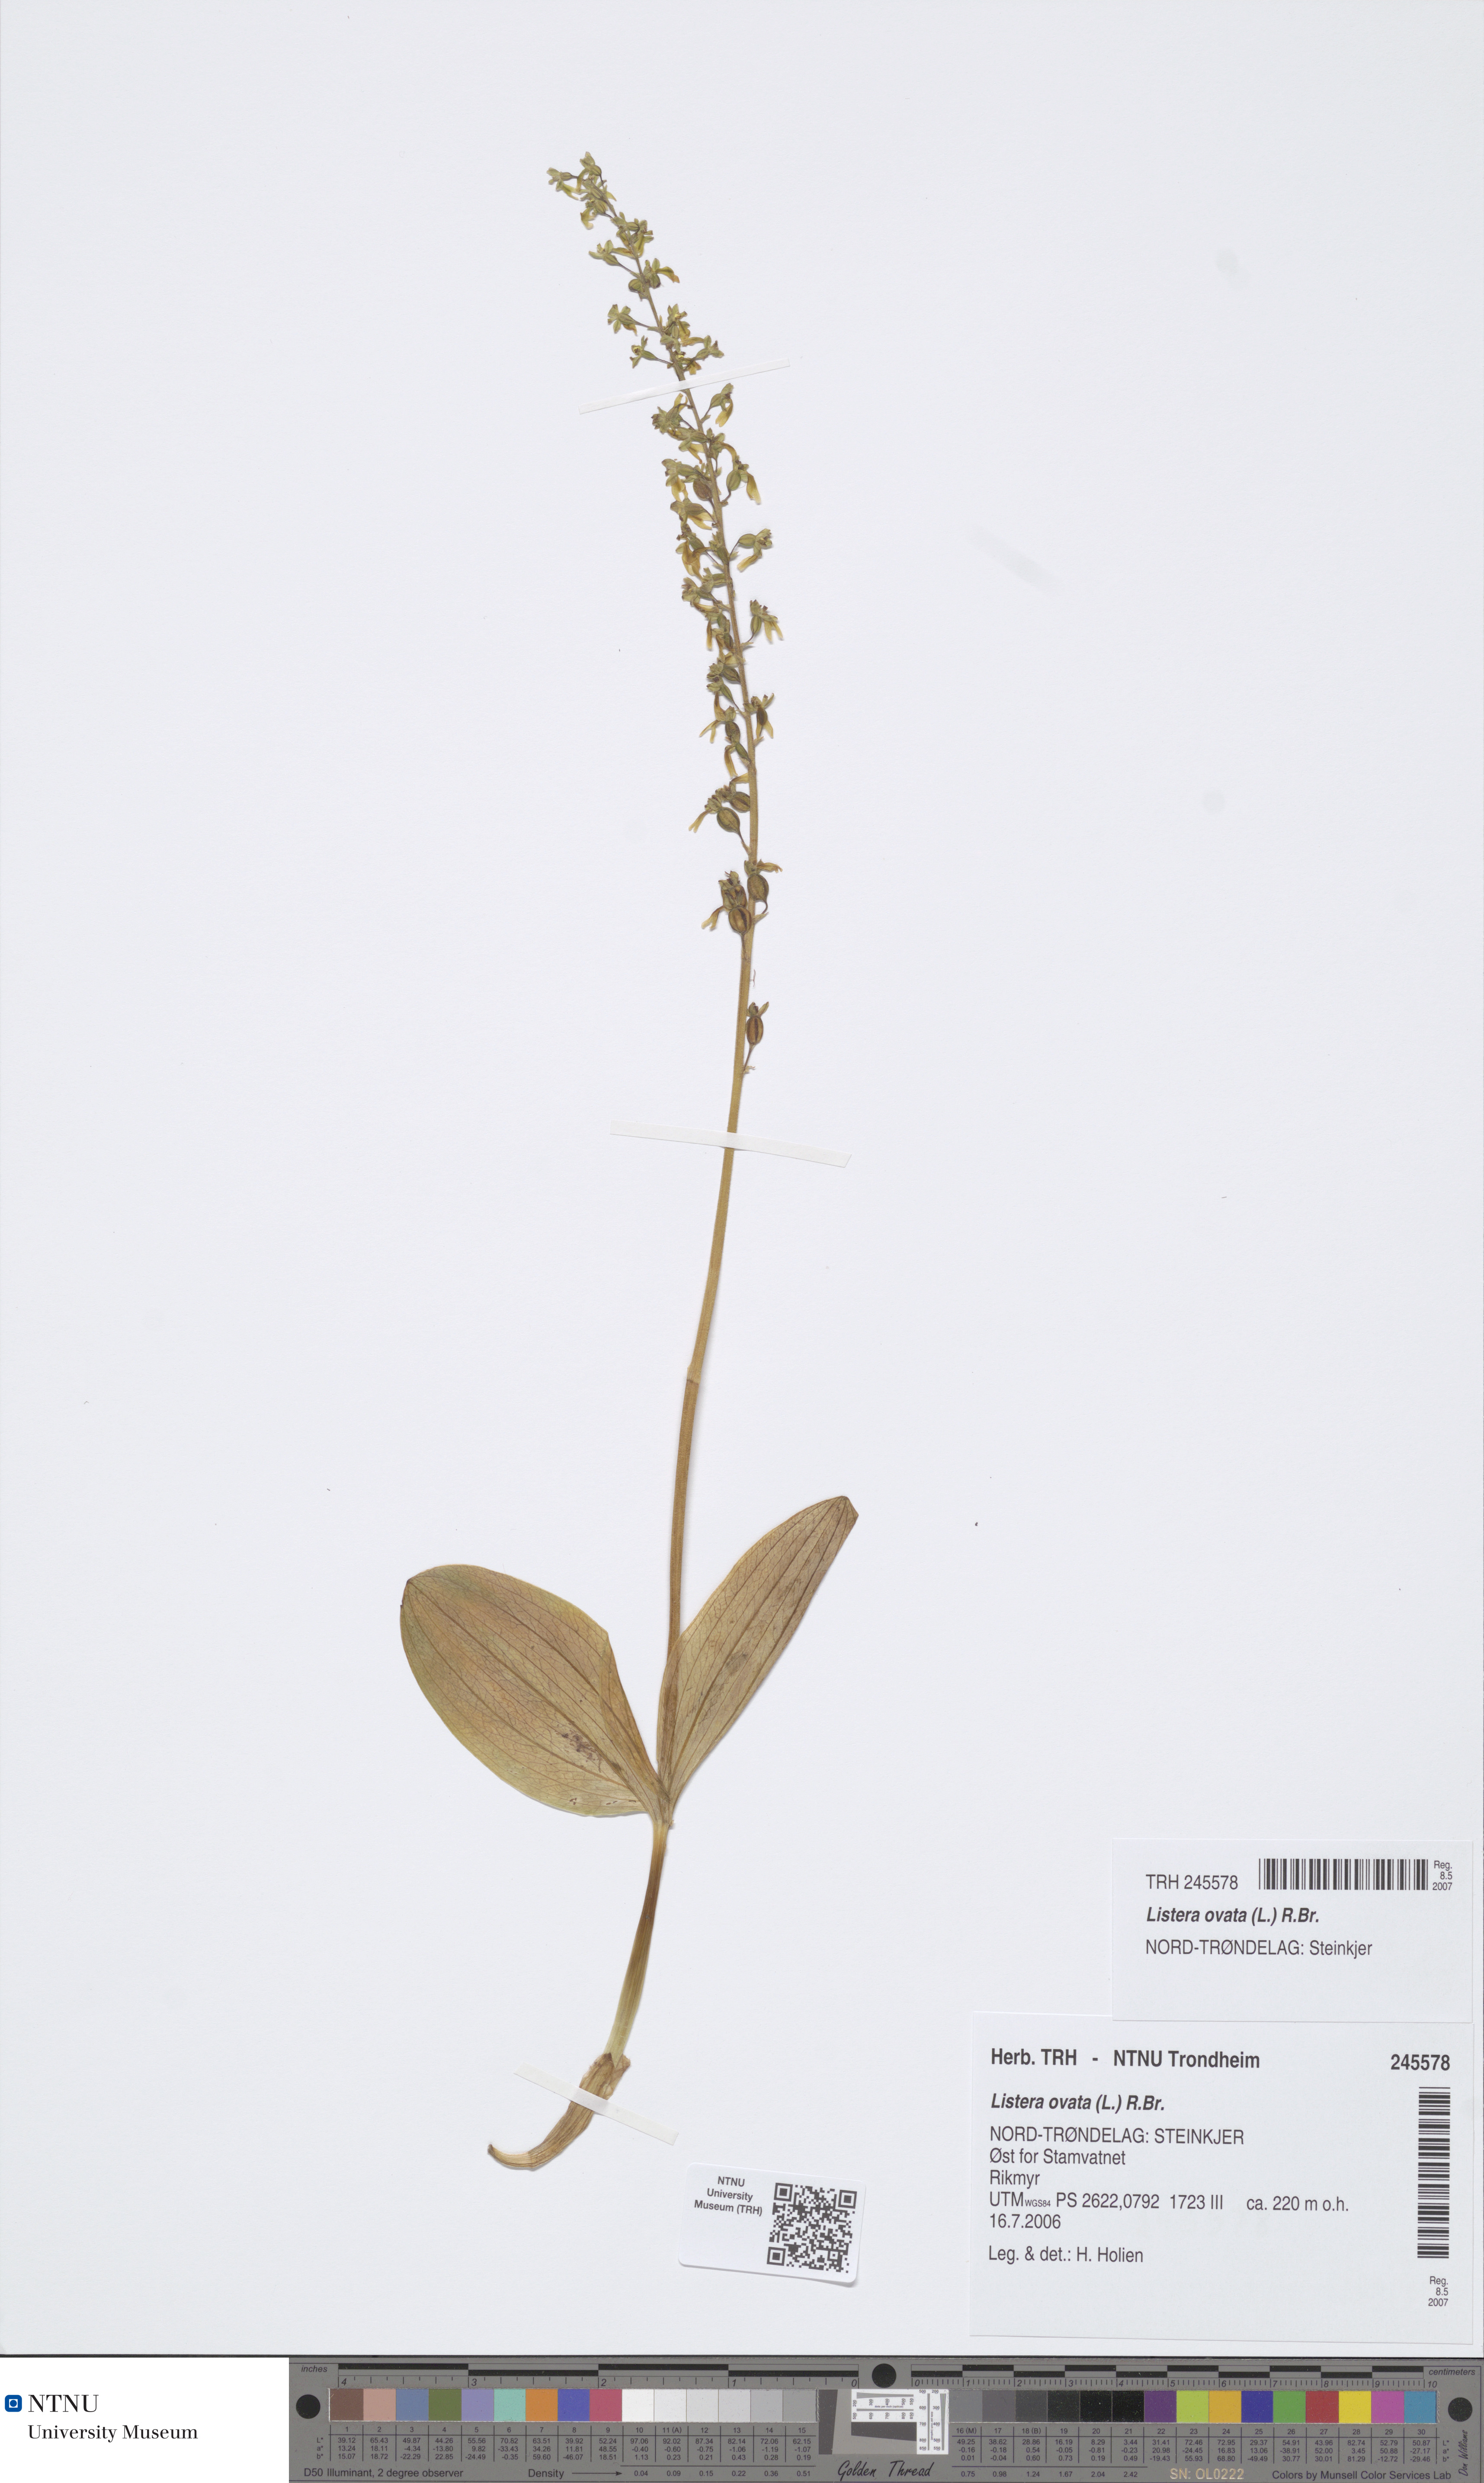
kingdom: Plantae
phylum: Tracheophyta
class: Liliopsida
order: Asparagales
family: Orchidaceae
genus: Neottia
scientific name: Neottia ovata
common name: Common twayblade
